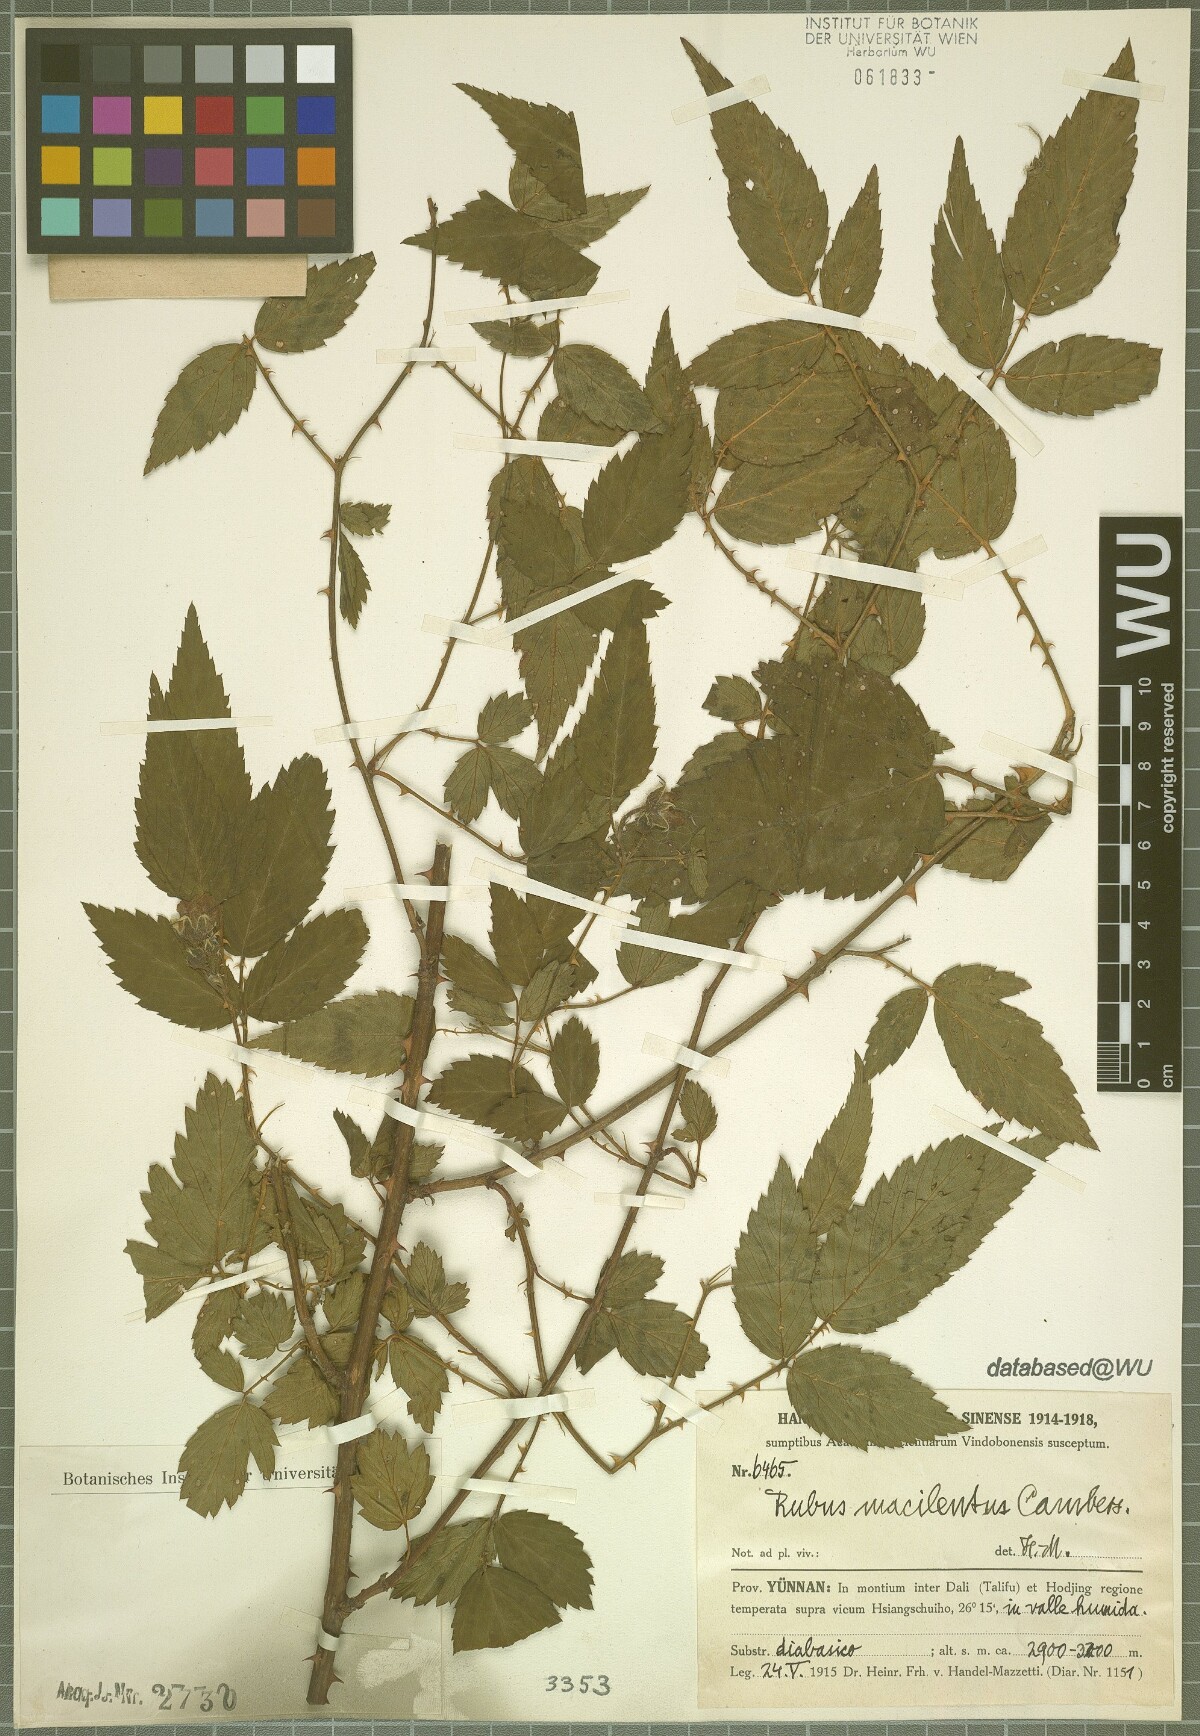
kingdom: Plantae
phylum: Tracheophyta
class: Magnoliopsida
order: Rosales
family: Rosaceae
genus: Rubus
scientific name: Rubus macilentus
